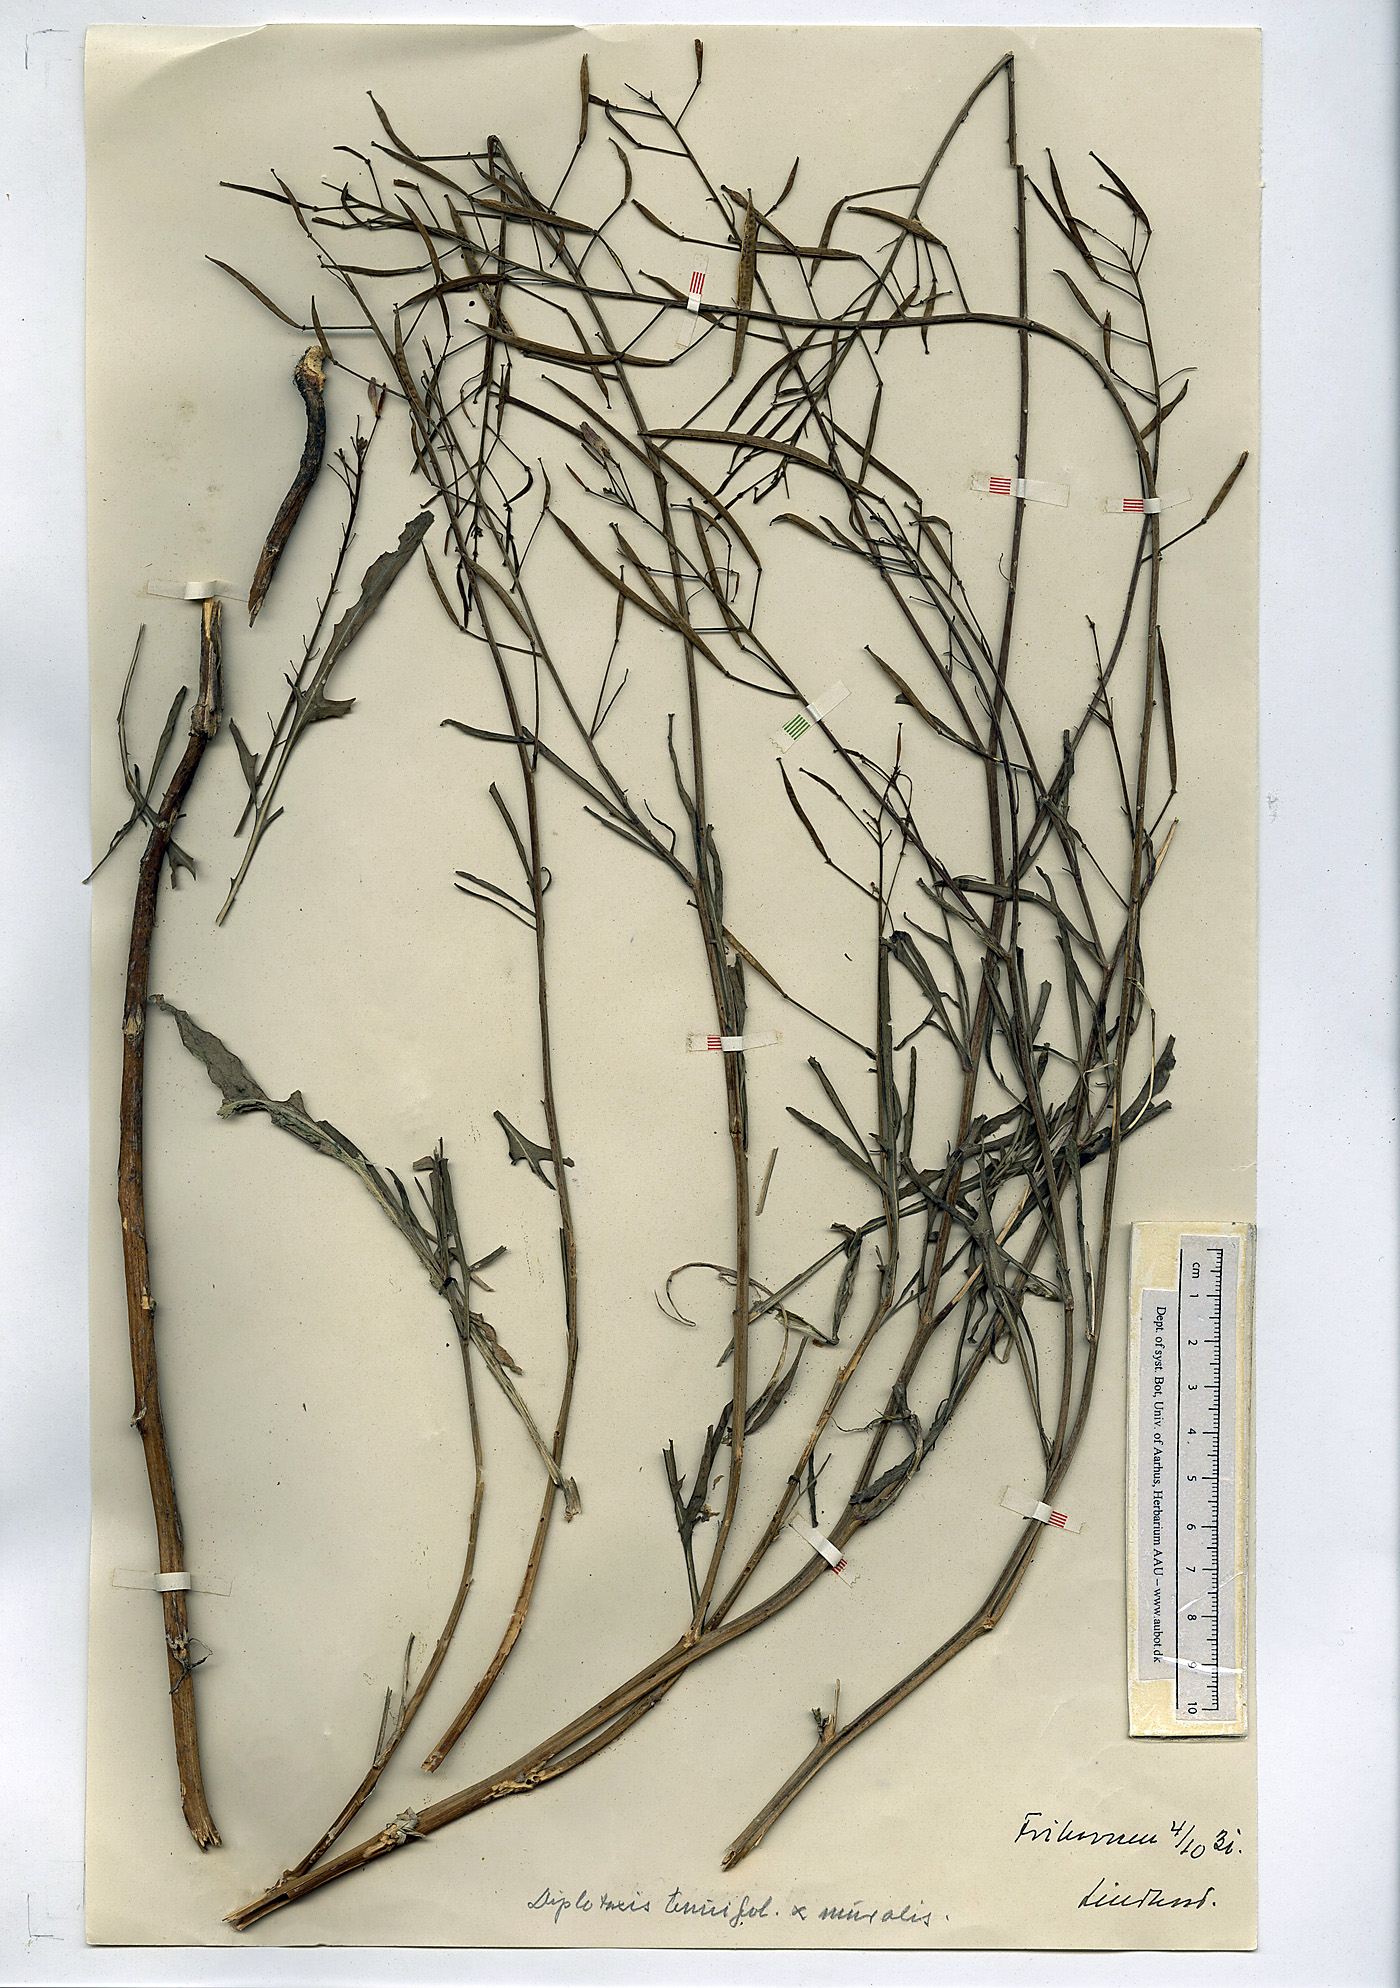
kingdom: Plantae
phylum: Tracheophyta
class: Magnoliopsida
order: Brassicales
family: Brassicaceae
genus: Diplotaxis
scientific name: Diplotaxis tenuifolia
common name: Perennial wall-rocket
